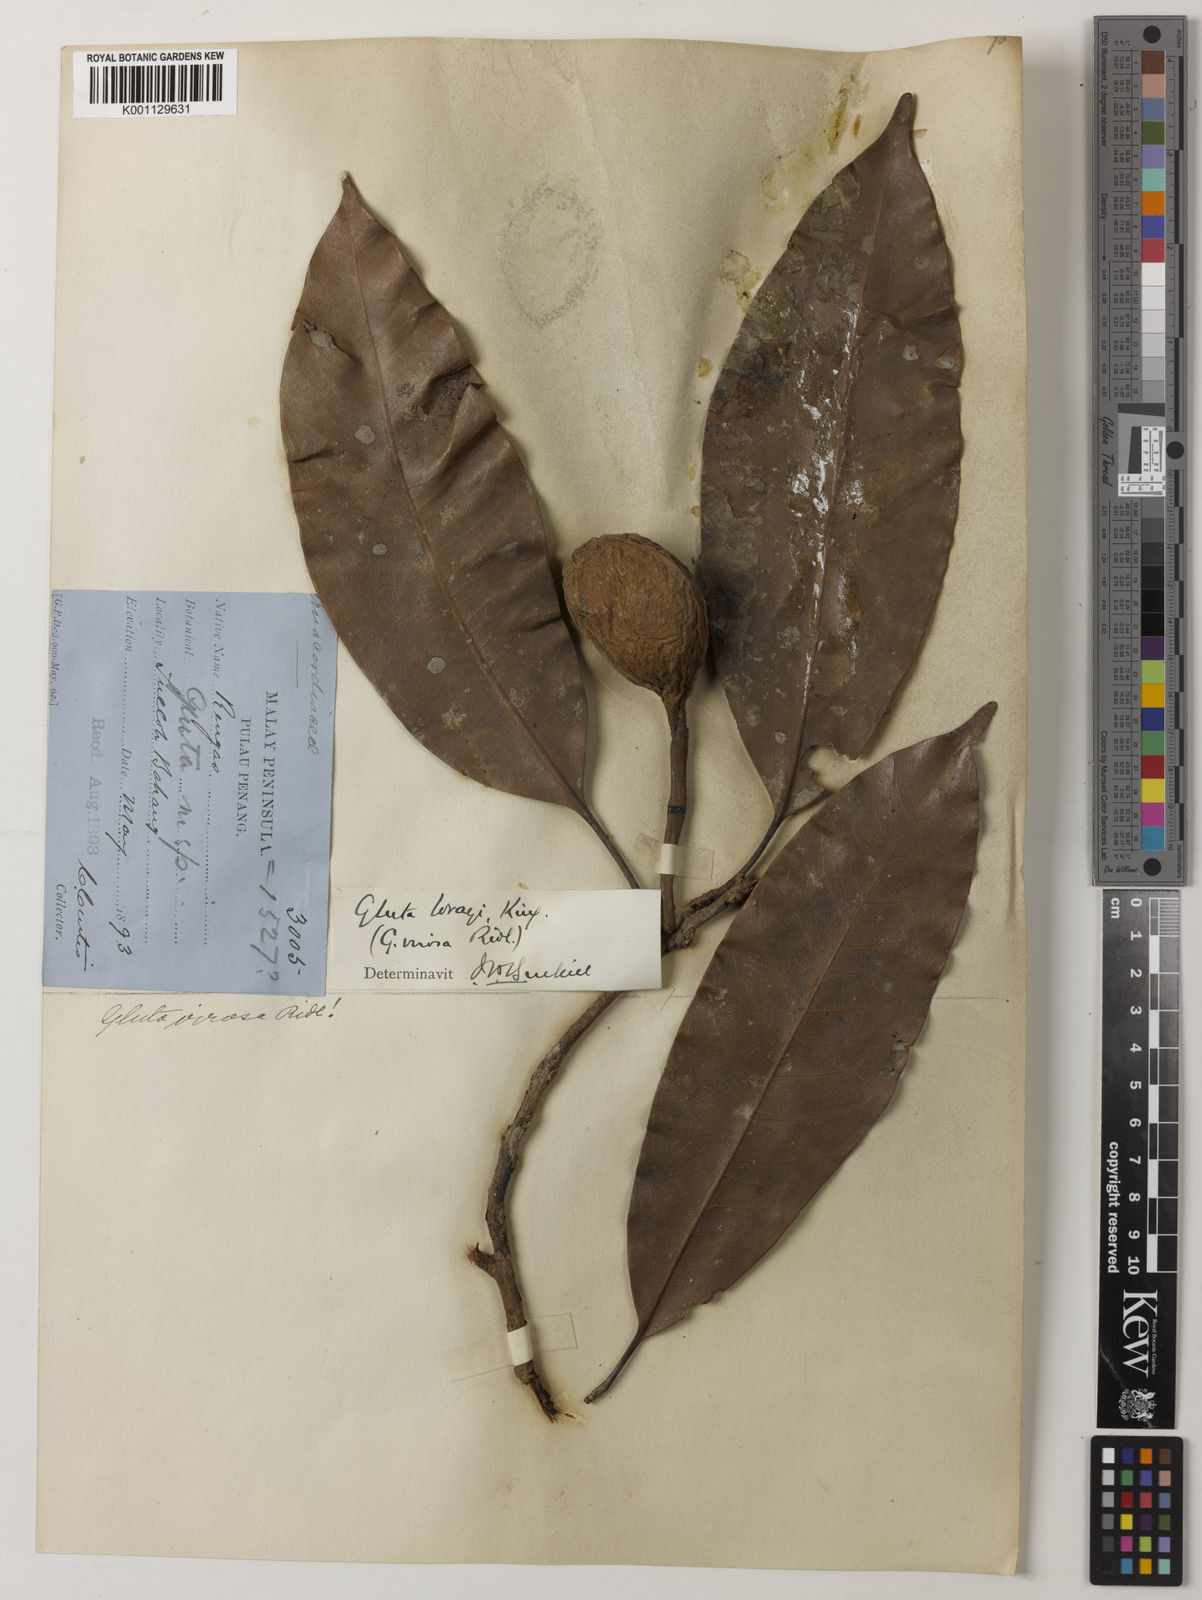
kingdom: Plantae
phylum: Tracheophyta
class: Magnoliopsida
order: Sapindales
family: Anacardiaceae
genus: Gluta
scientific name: Gluta wrayi
